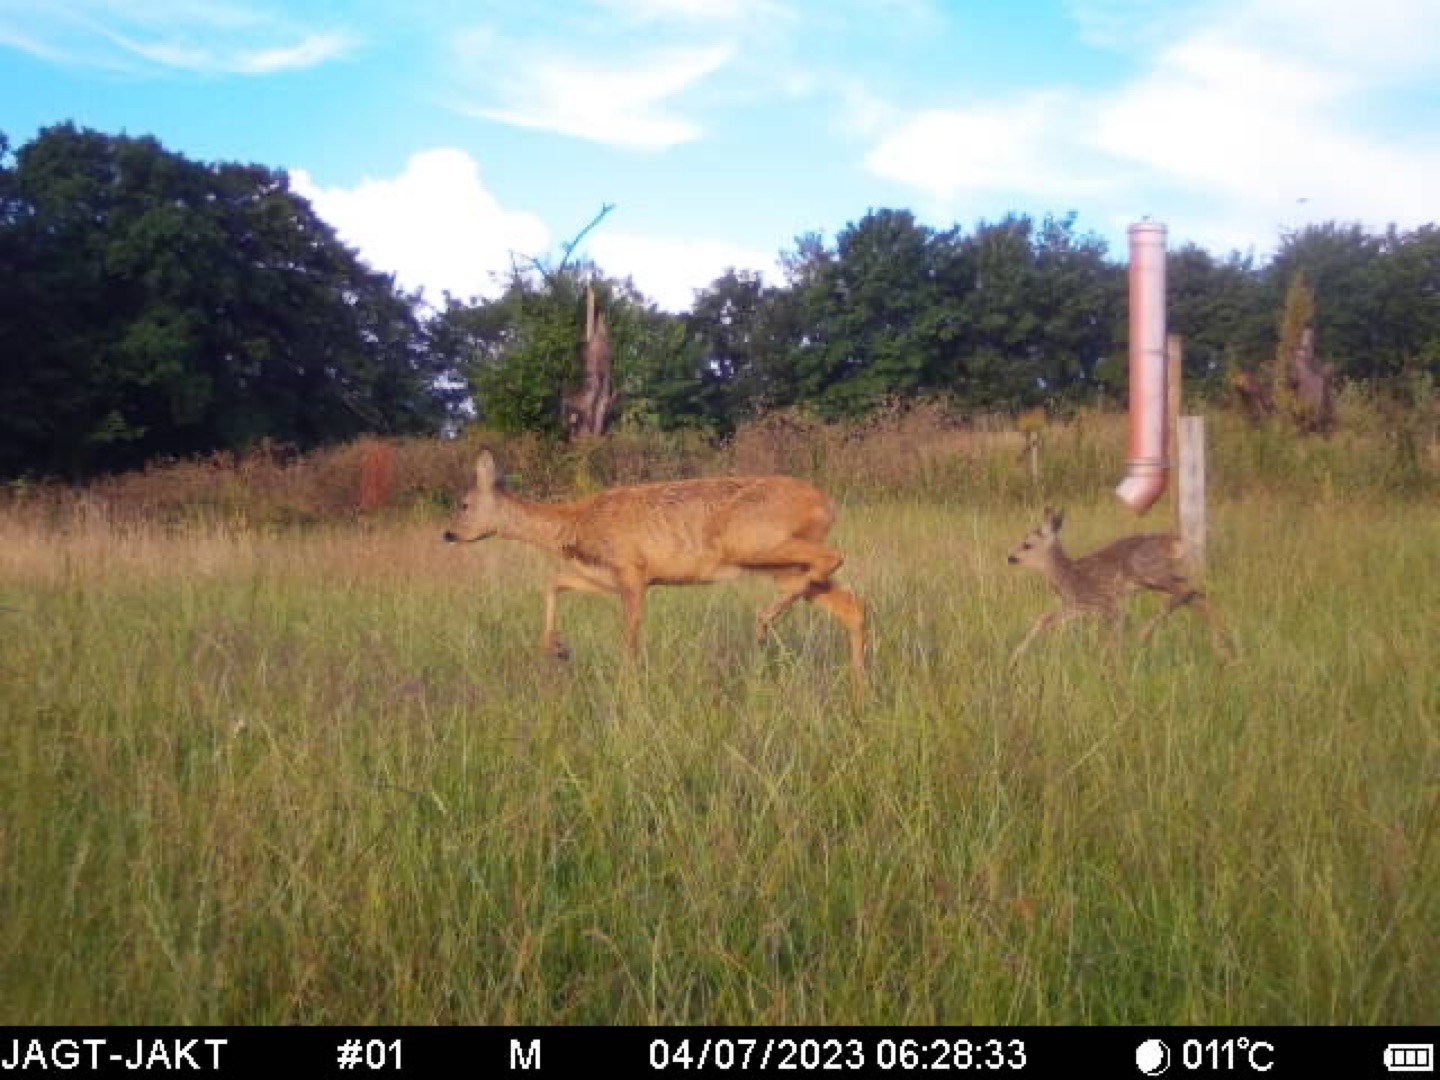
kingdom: Animalia
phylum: Chordata
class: Mammalia
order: Artiodactyla
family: Cervidae
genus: Capreolus
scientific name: Capreolus capreolus
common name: Rådyr
